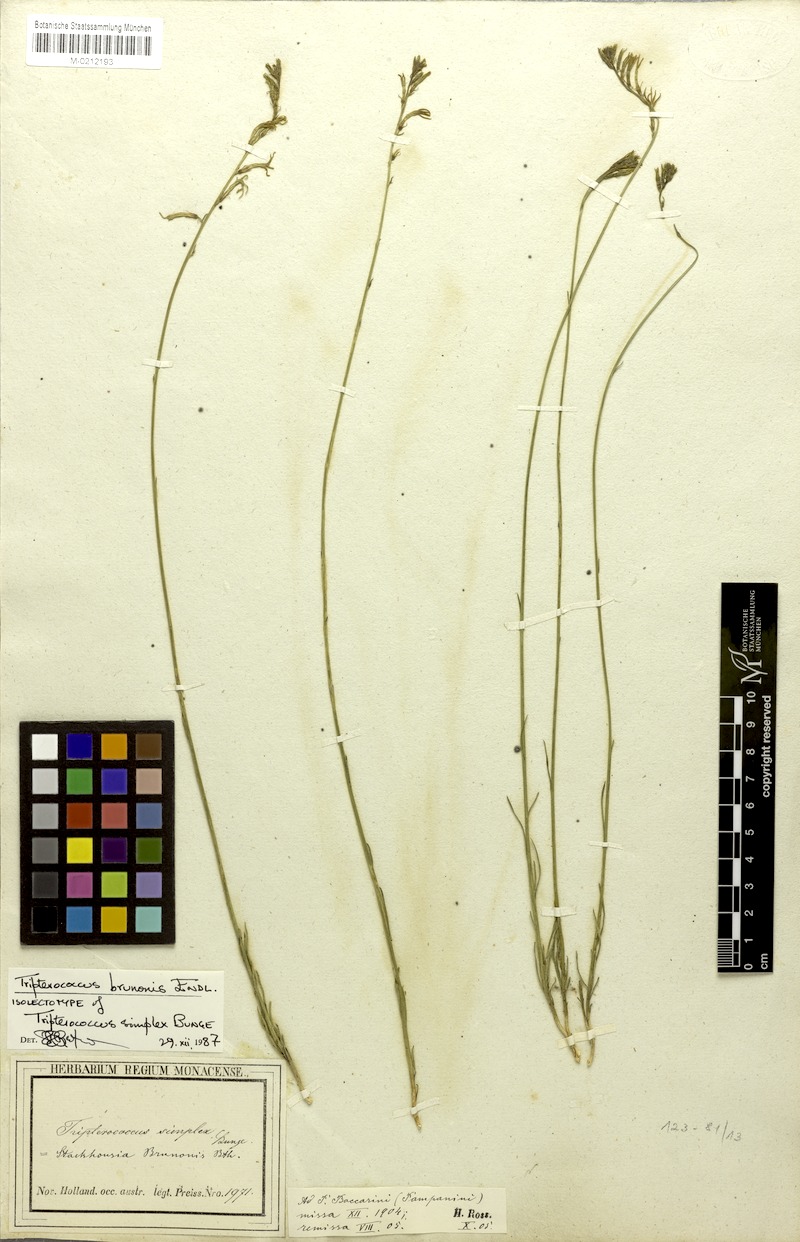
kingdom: Plantae
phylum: Tracheophyta
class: Magnoliopsida
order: Celastrales
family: Celastraceae
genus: Tripterococcus
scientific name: Tripterococcus brunonis
